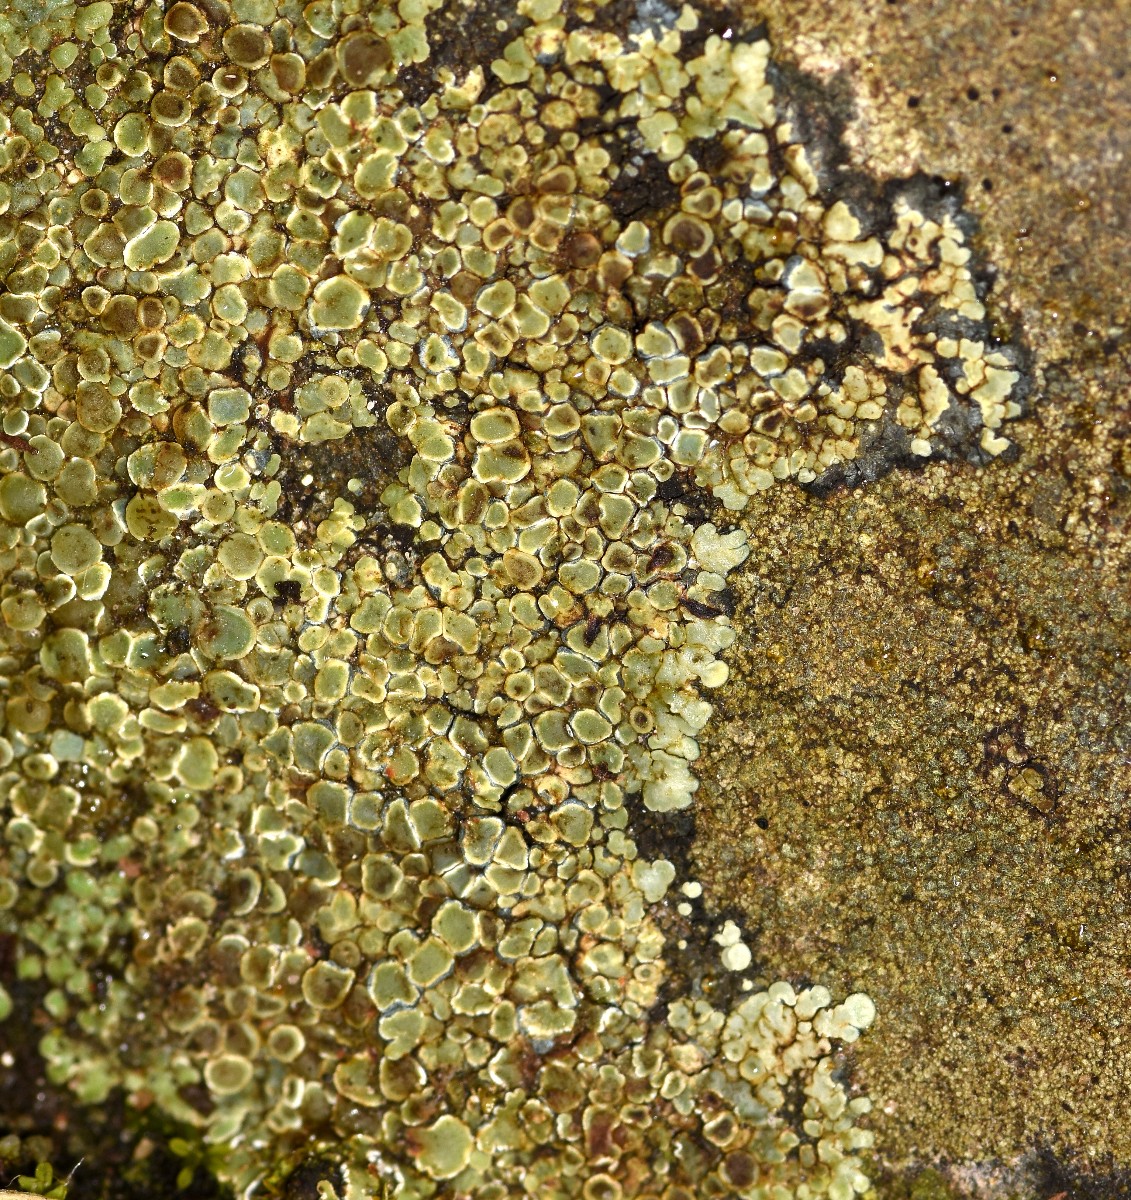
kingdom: Fungi
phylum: Ascomycota
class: Lecanoromycetes
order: Lecanorales
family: Lecanoraceae
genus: Protoparmeliopsis
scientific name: Protoparmeliopsis muralis
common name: randfliget kantskivelav
